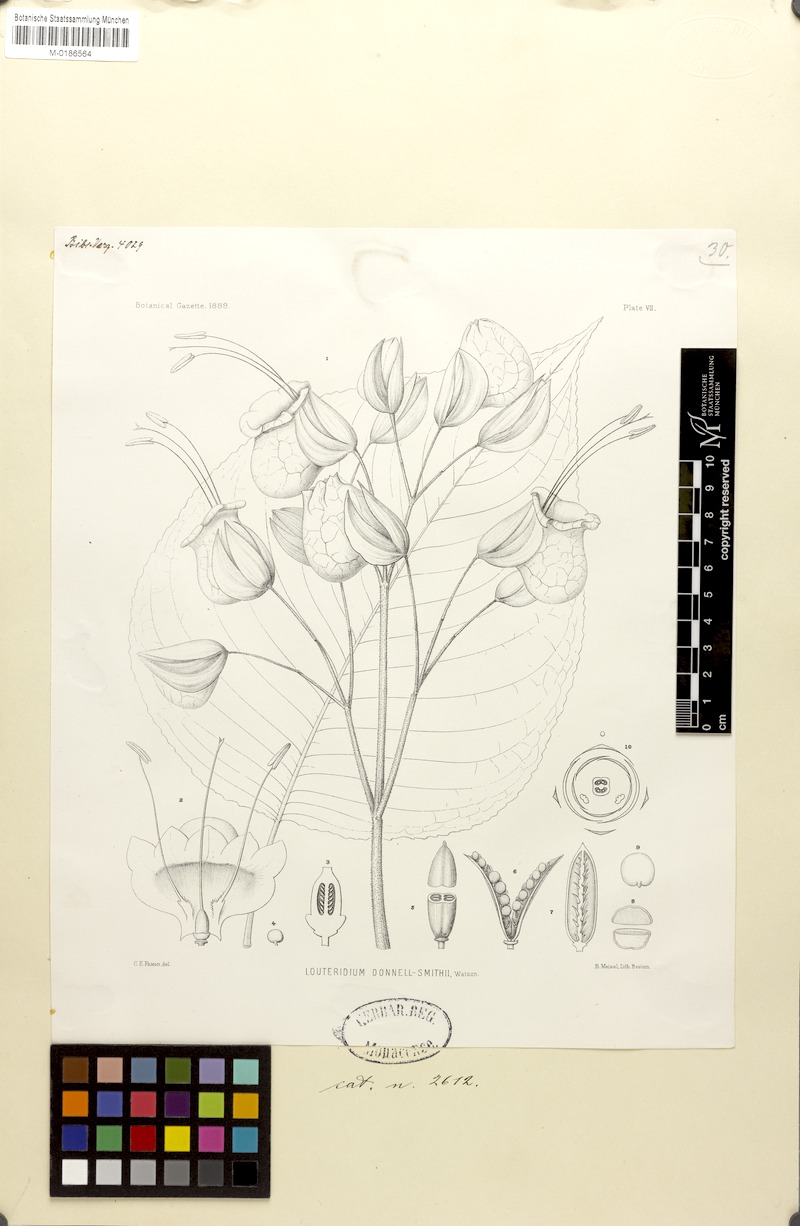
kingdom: Plantae
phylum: Tracheophyta
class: Magnoliopsida
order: Lamiales
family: Acanthaceae
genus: Louteridium
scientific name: Louteridium donnell-smithii
